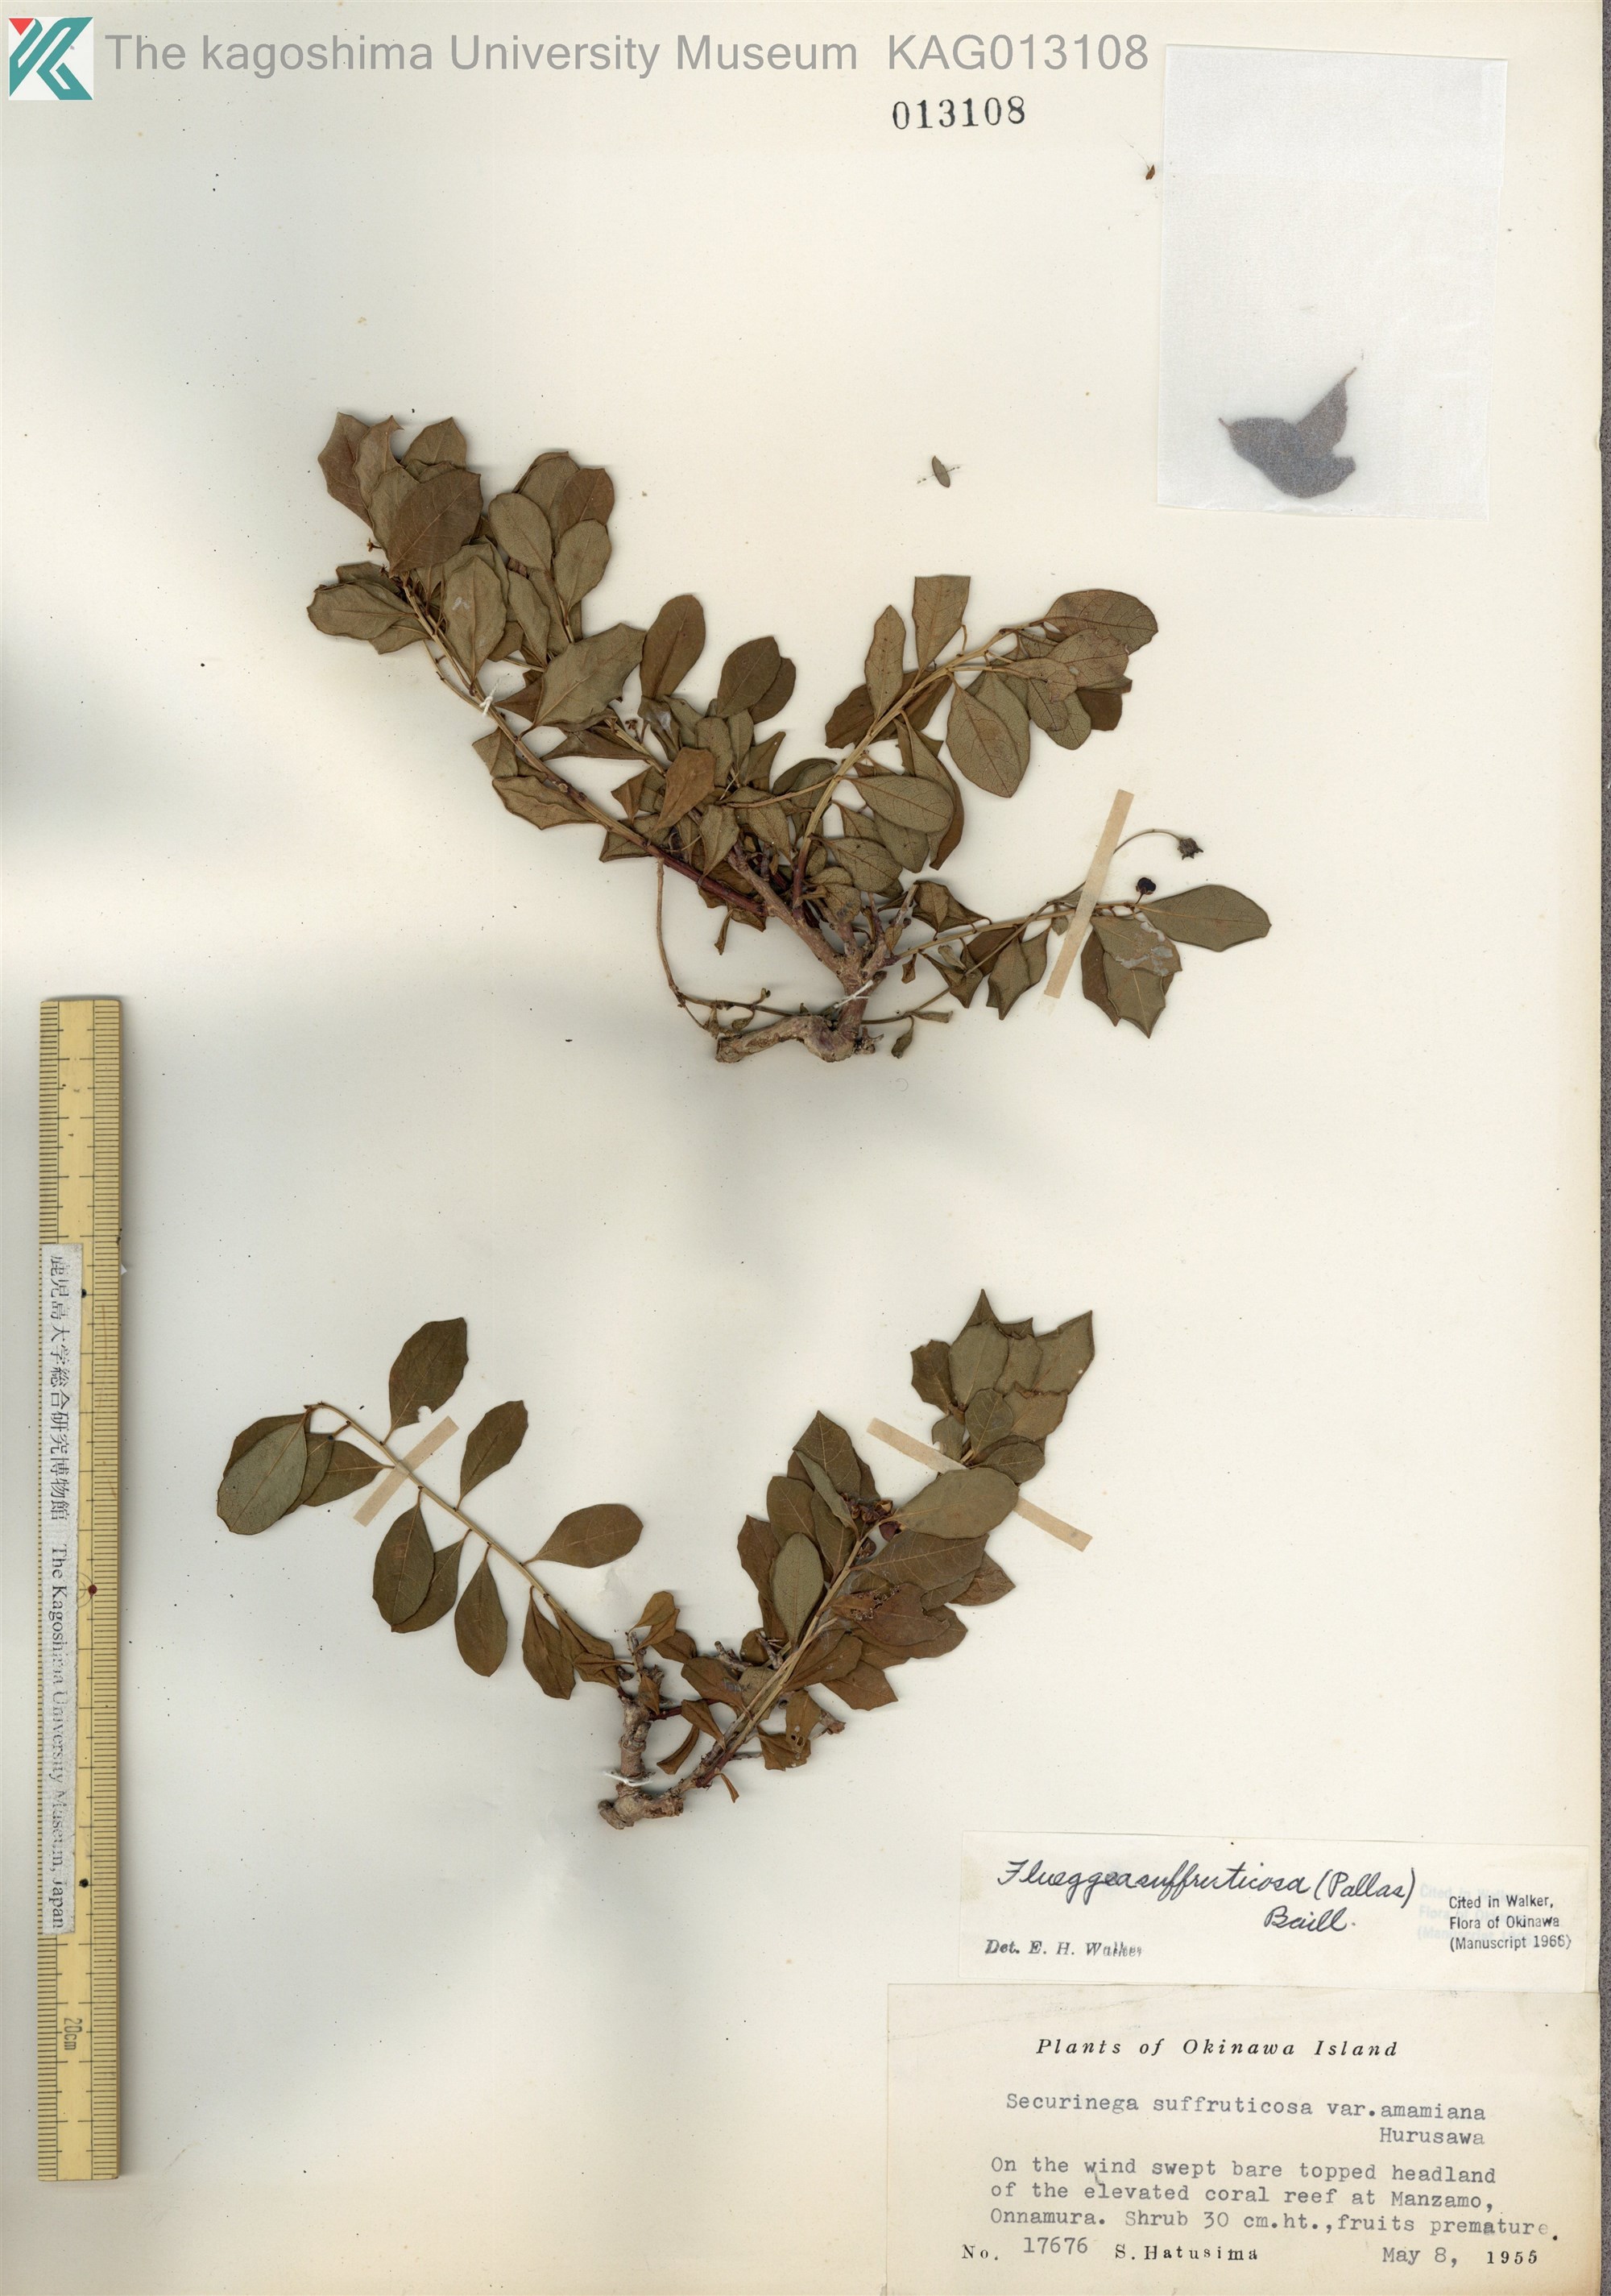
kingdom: Plantae
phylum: Tracheophyta
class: Magnoliopsida
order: Malpighiales
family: Phyllanthaceae
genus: Flueggea
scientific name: Flueggea suffruticosa
